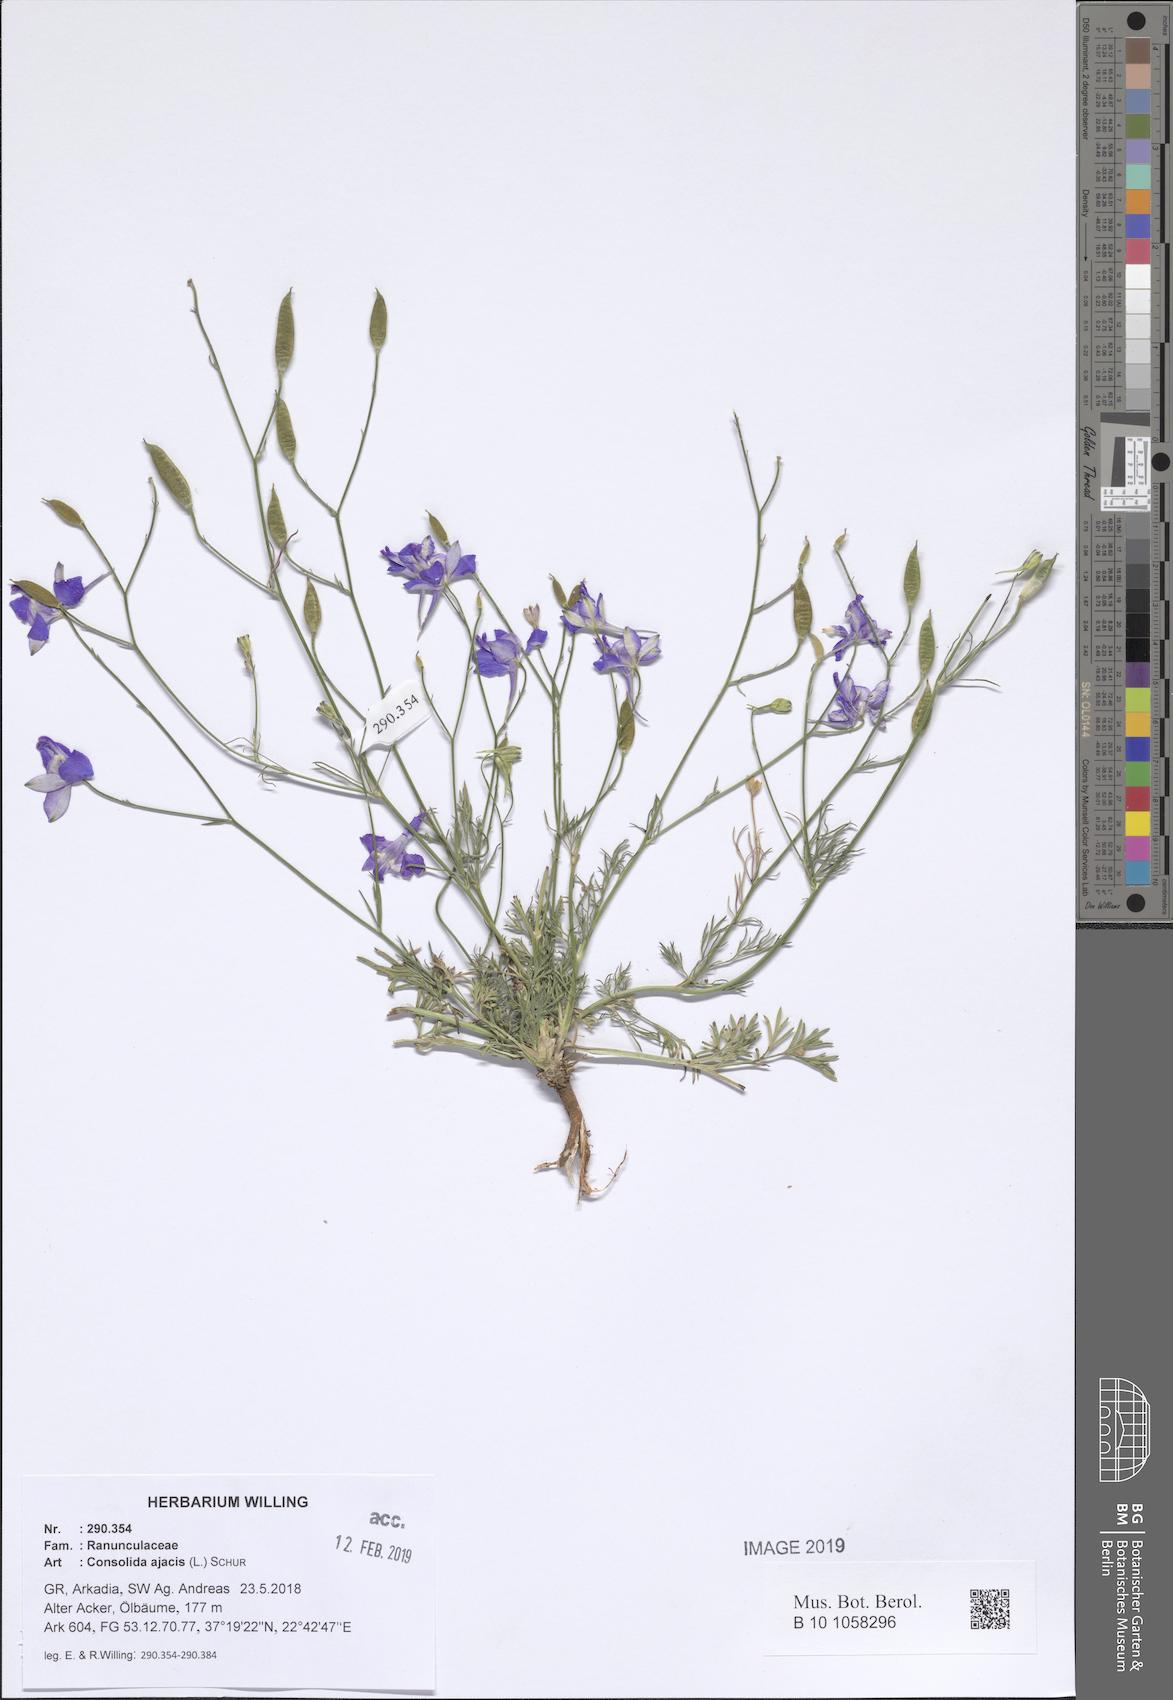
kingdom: Plantae
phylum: Tracheophyta
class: Magnoliopsida
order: Ranunculales
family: Ranunculaceae
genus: Delphinium
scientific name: Delphinium ajacis
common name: Doubtful knight's-spur
